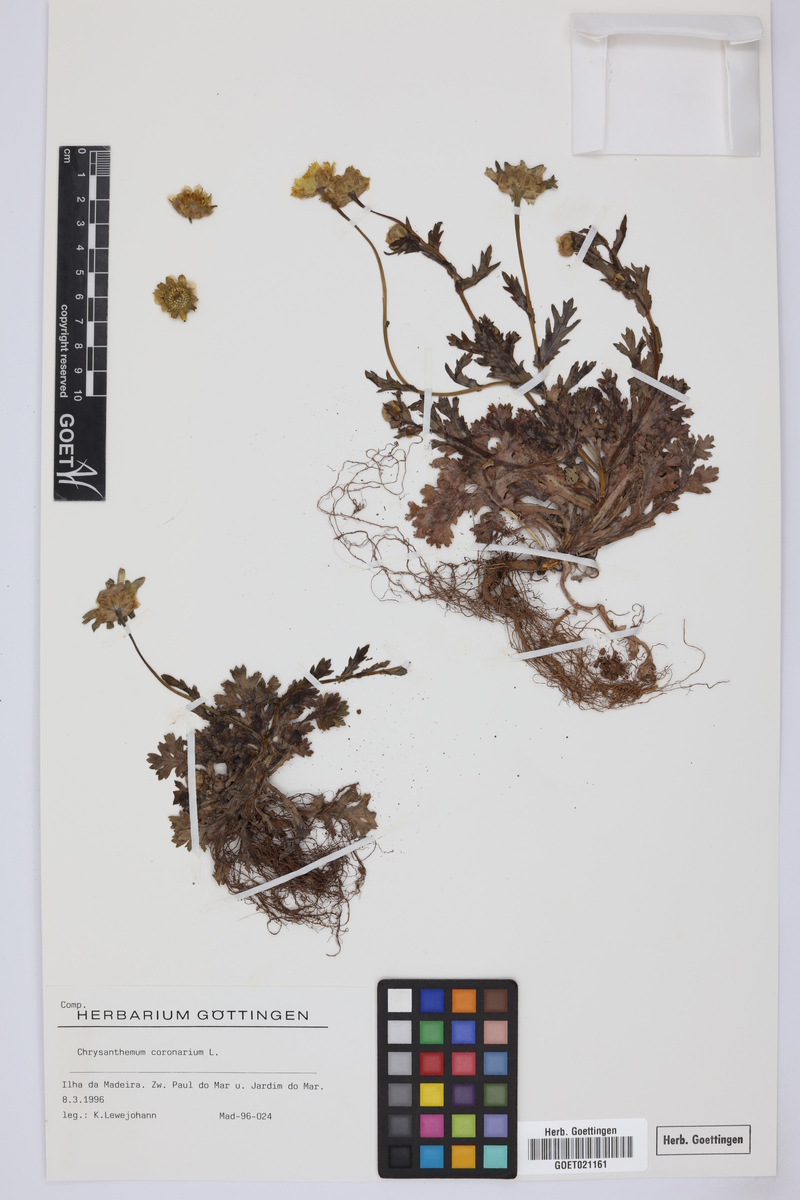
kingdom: Plantae
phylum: Tracheophyta
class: Magnoliopsida
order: Asterales
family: Asteraceae
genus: Glebionis
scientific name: Glebionis coronaria
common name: Crowndaisy
